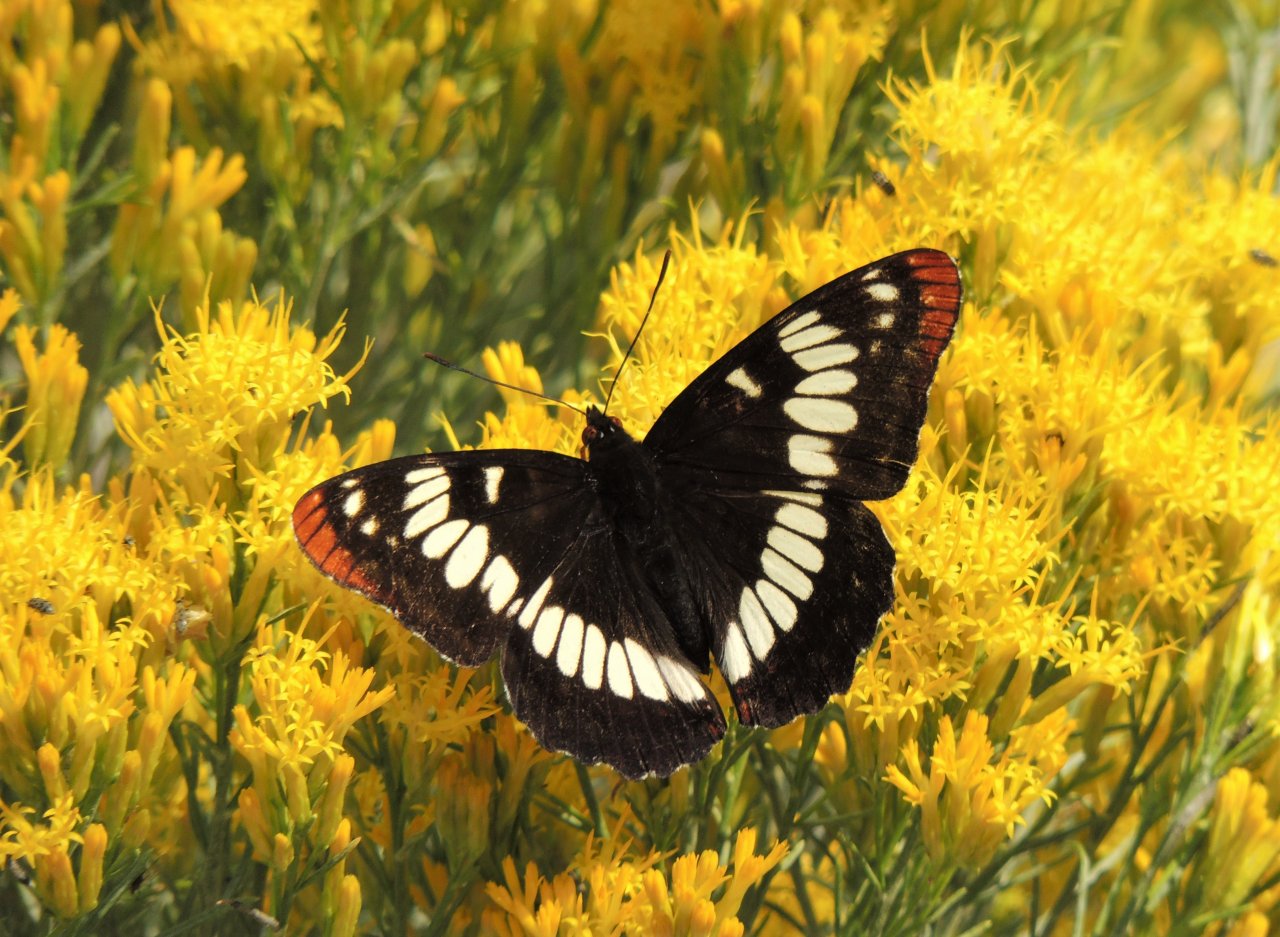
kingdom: Animalia
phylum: Arthropoda
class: Insecta
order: Lepidoptera
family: Nymphalidae
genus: Limenitis
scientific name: Limenitis lorquini
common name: Lorquin's Admiral
